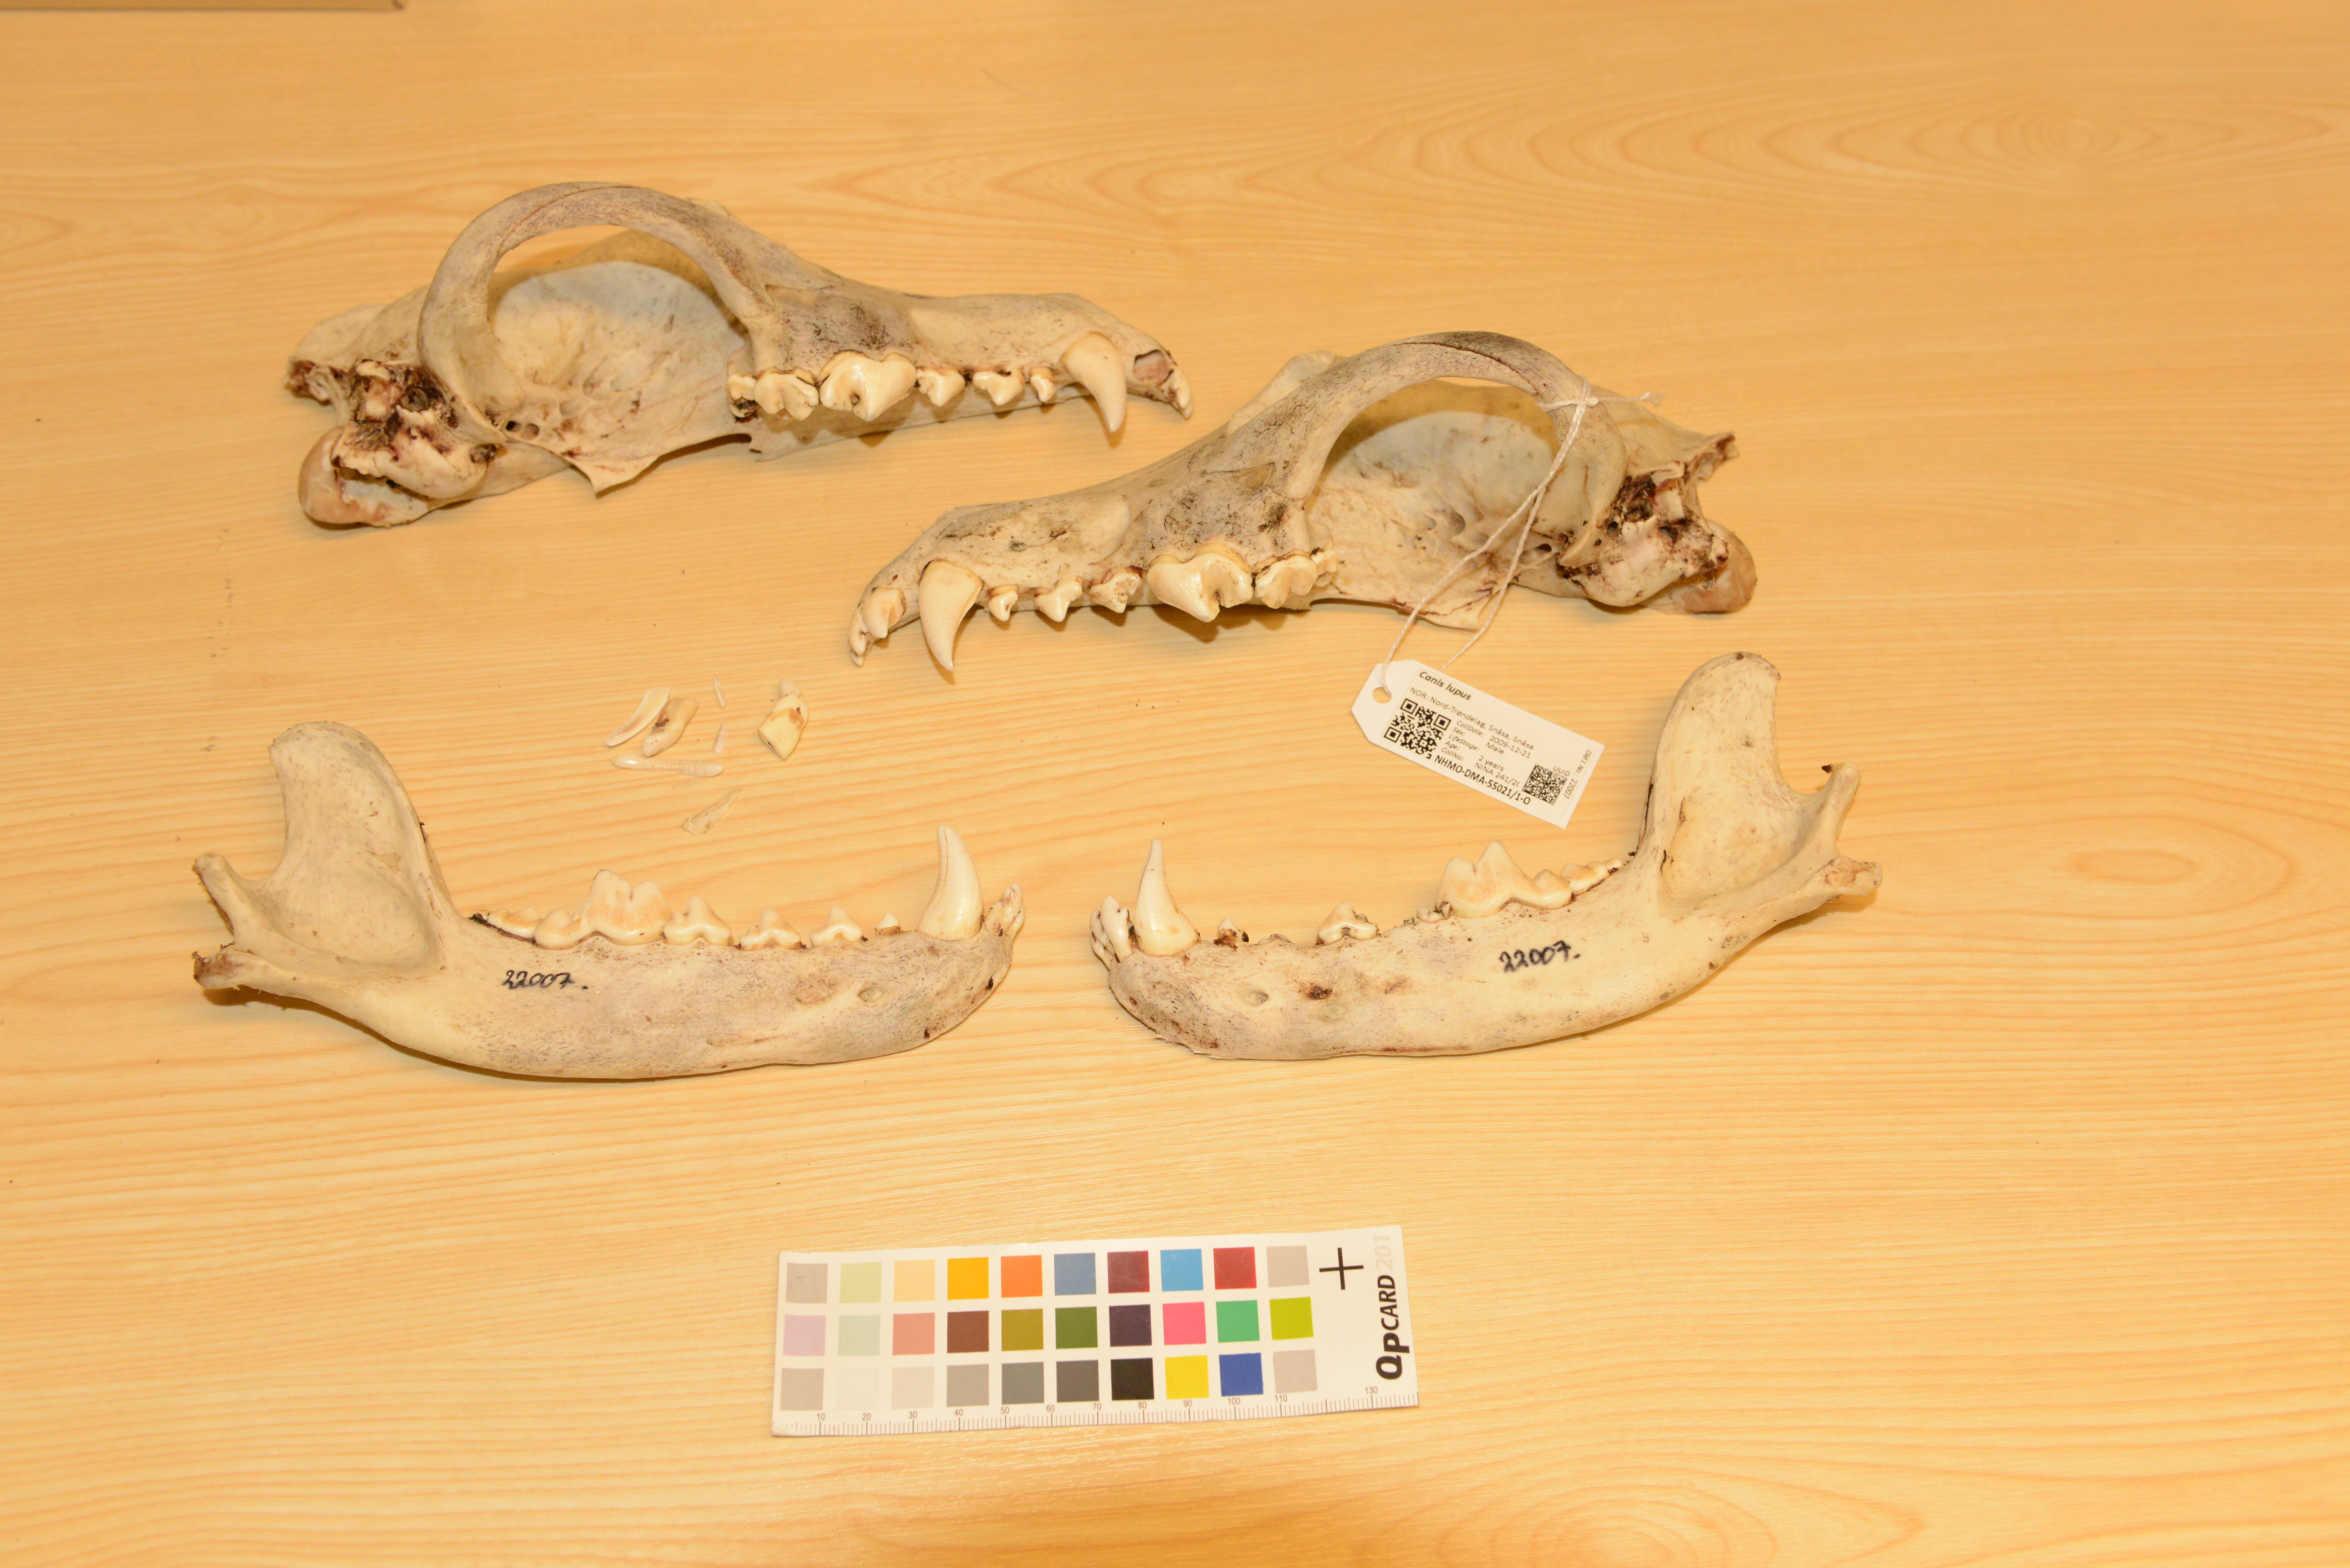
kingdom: Animalia
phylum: Chordata
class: Mammalia
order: Carnivora
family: Canidae
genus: Canis
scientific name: Canis lupus
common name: Gray wolf
